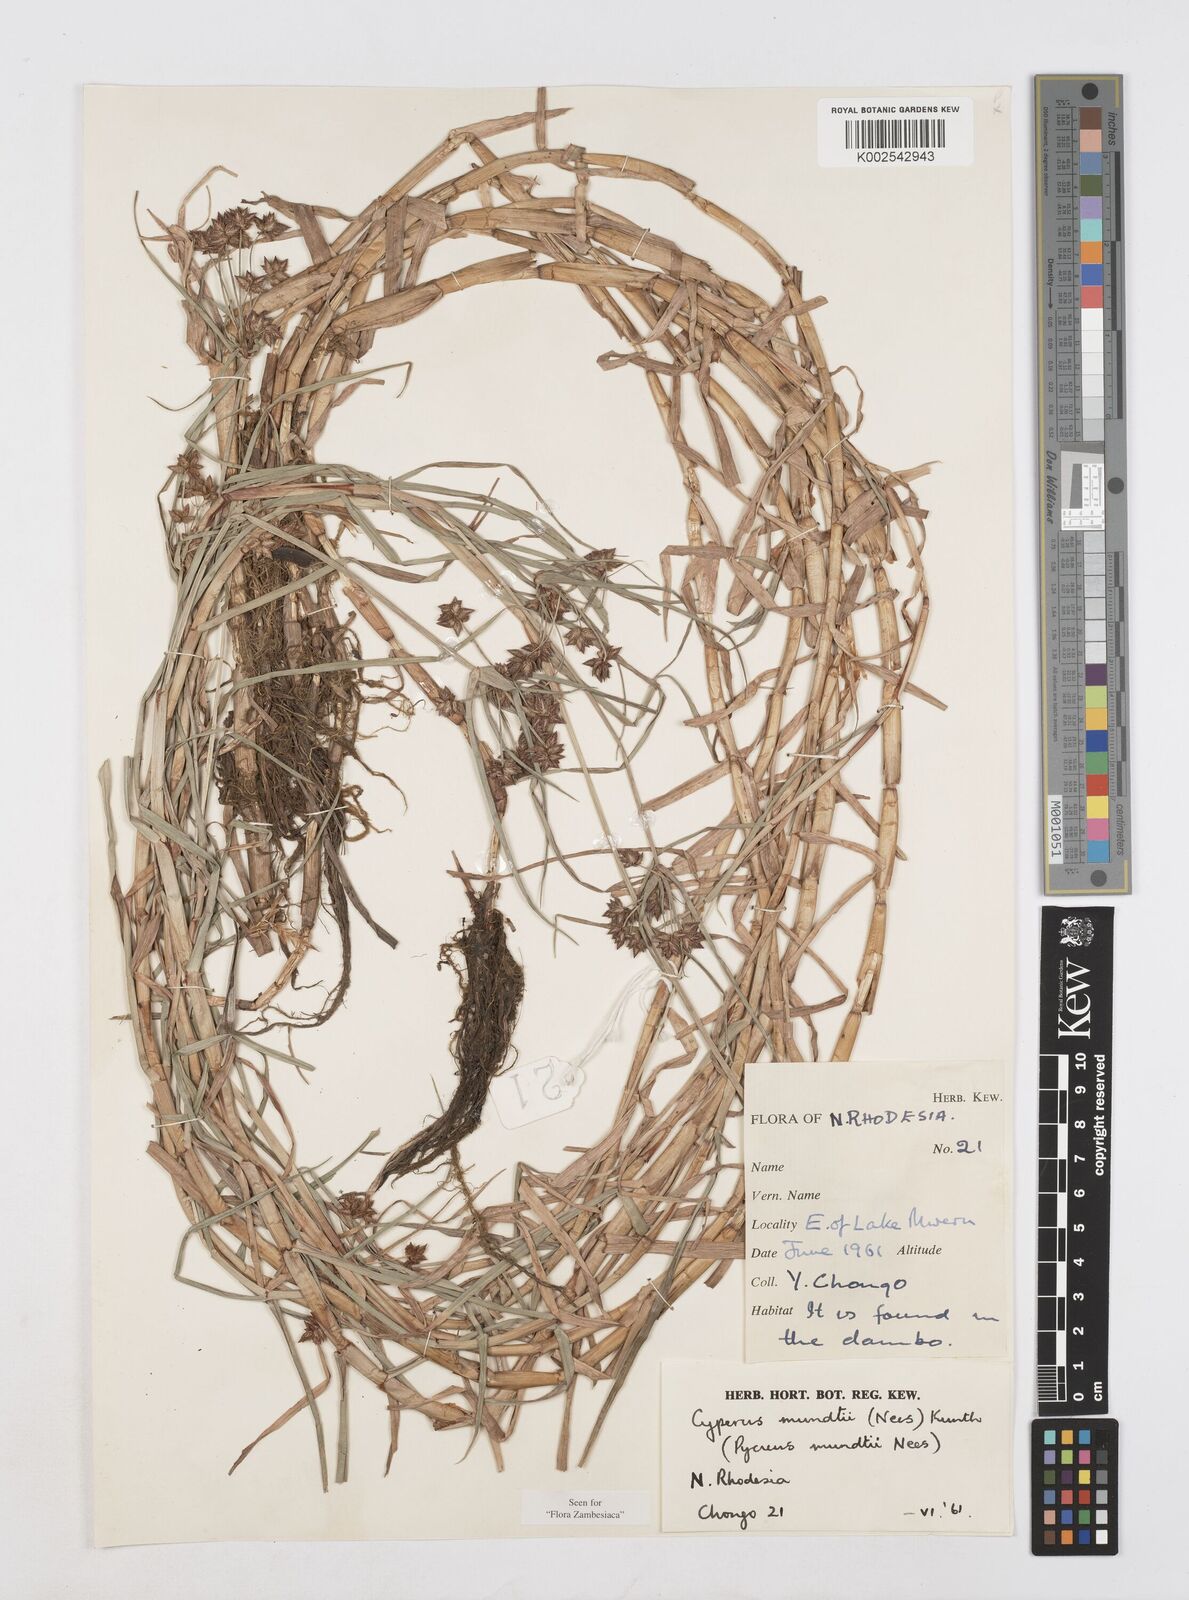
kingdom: Plantae
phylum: Tracheophyta
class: Liliopsida
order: Poales
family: Cyperaceae
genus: Cyperus
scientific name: Cyperus mundii
